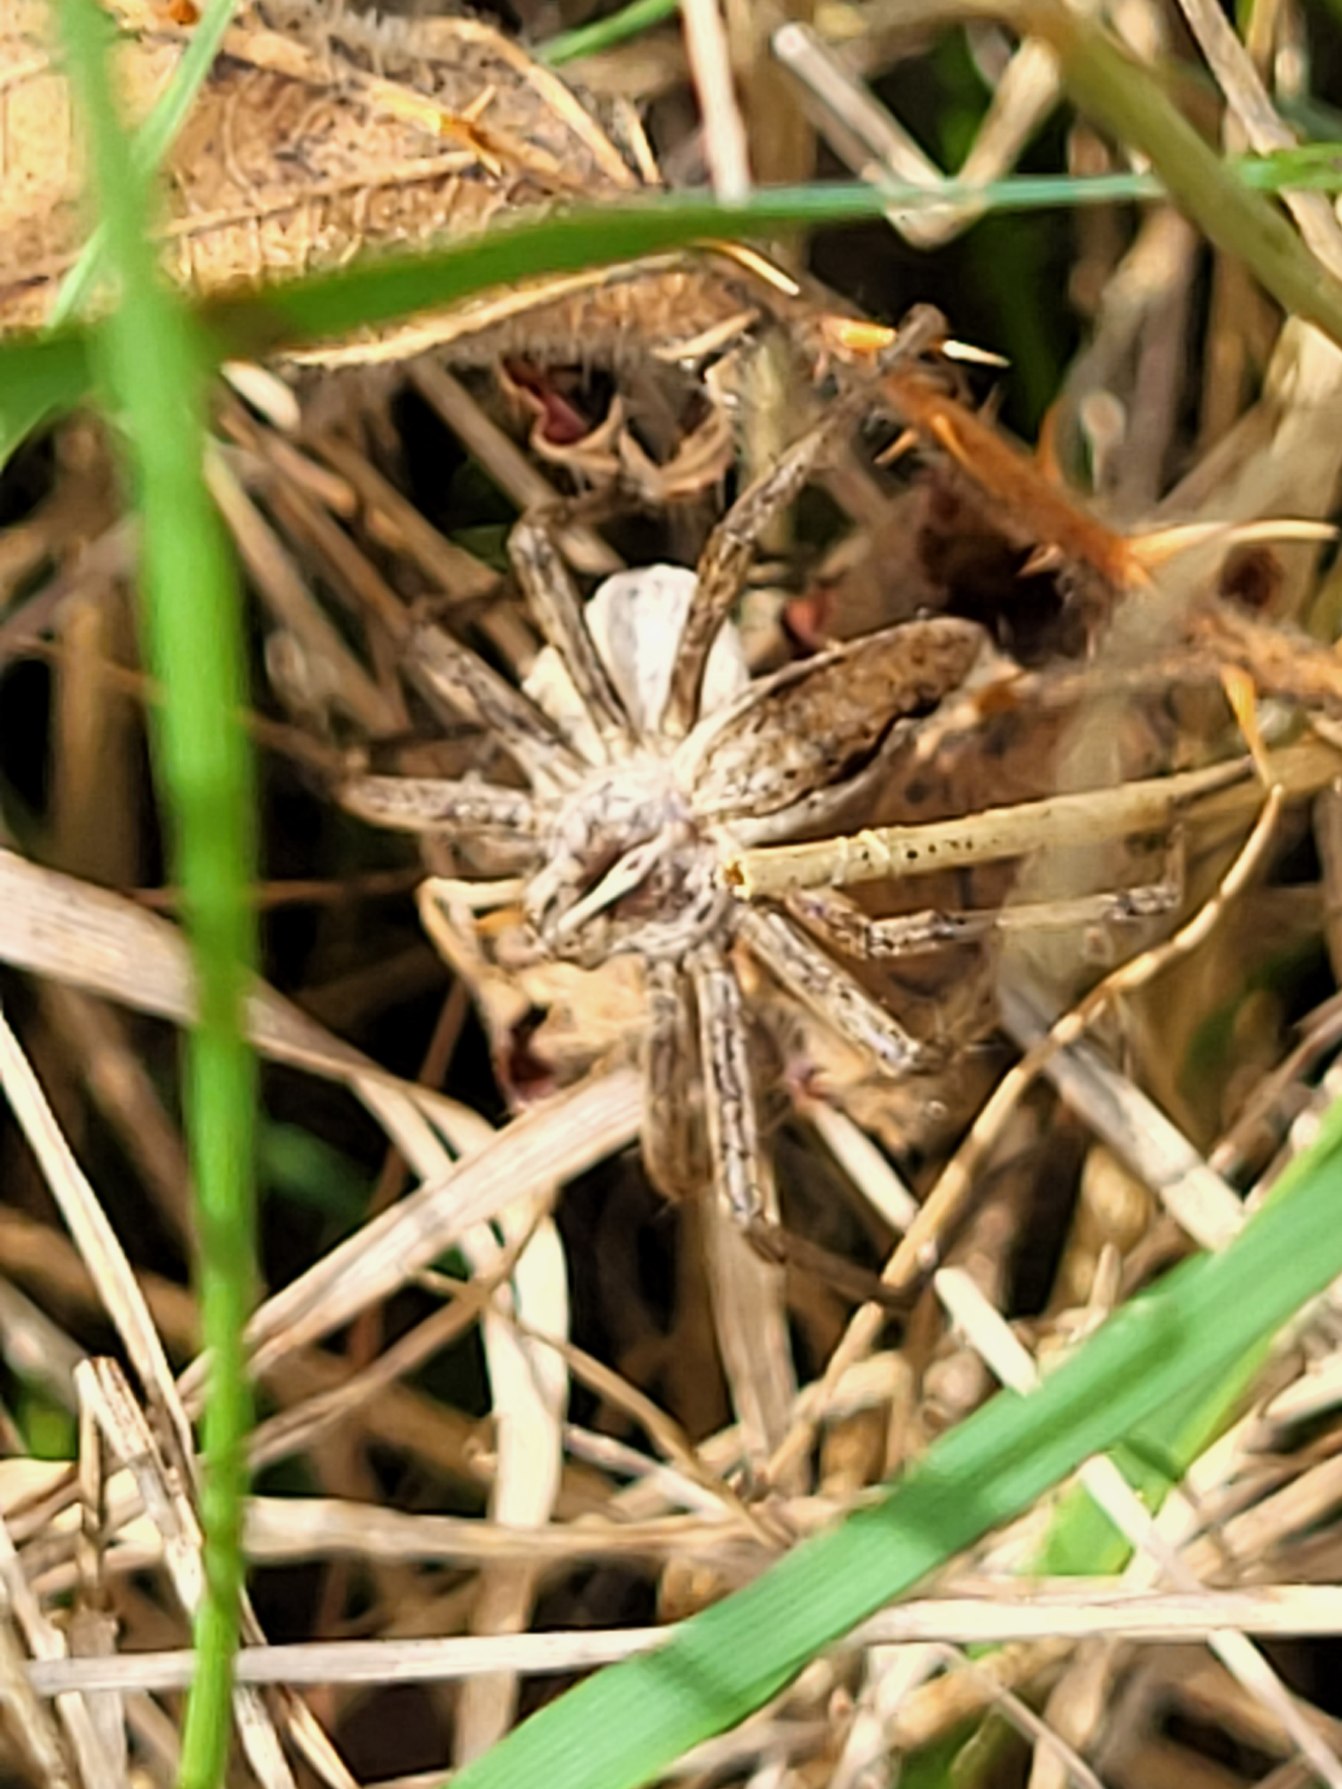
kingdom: Animalia
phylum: Arthropoda
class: Arachnida
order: Araneae
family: Pisauridae
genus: Pisaura
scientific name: Pisaura mirabilis
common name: Almindelig rovedderkop
